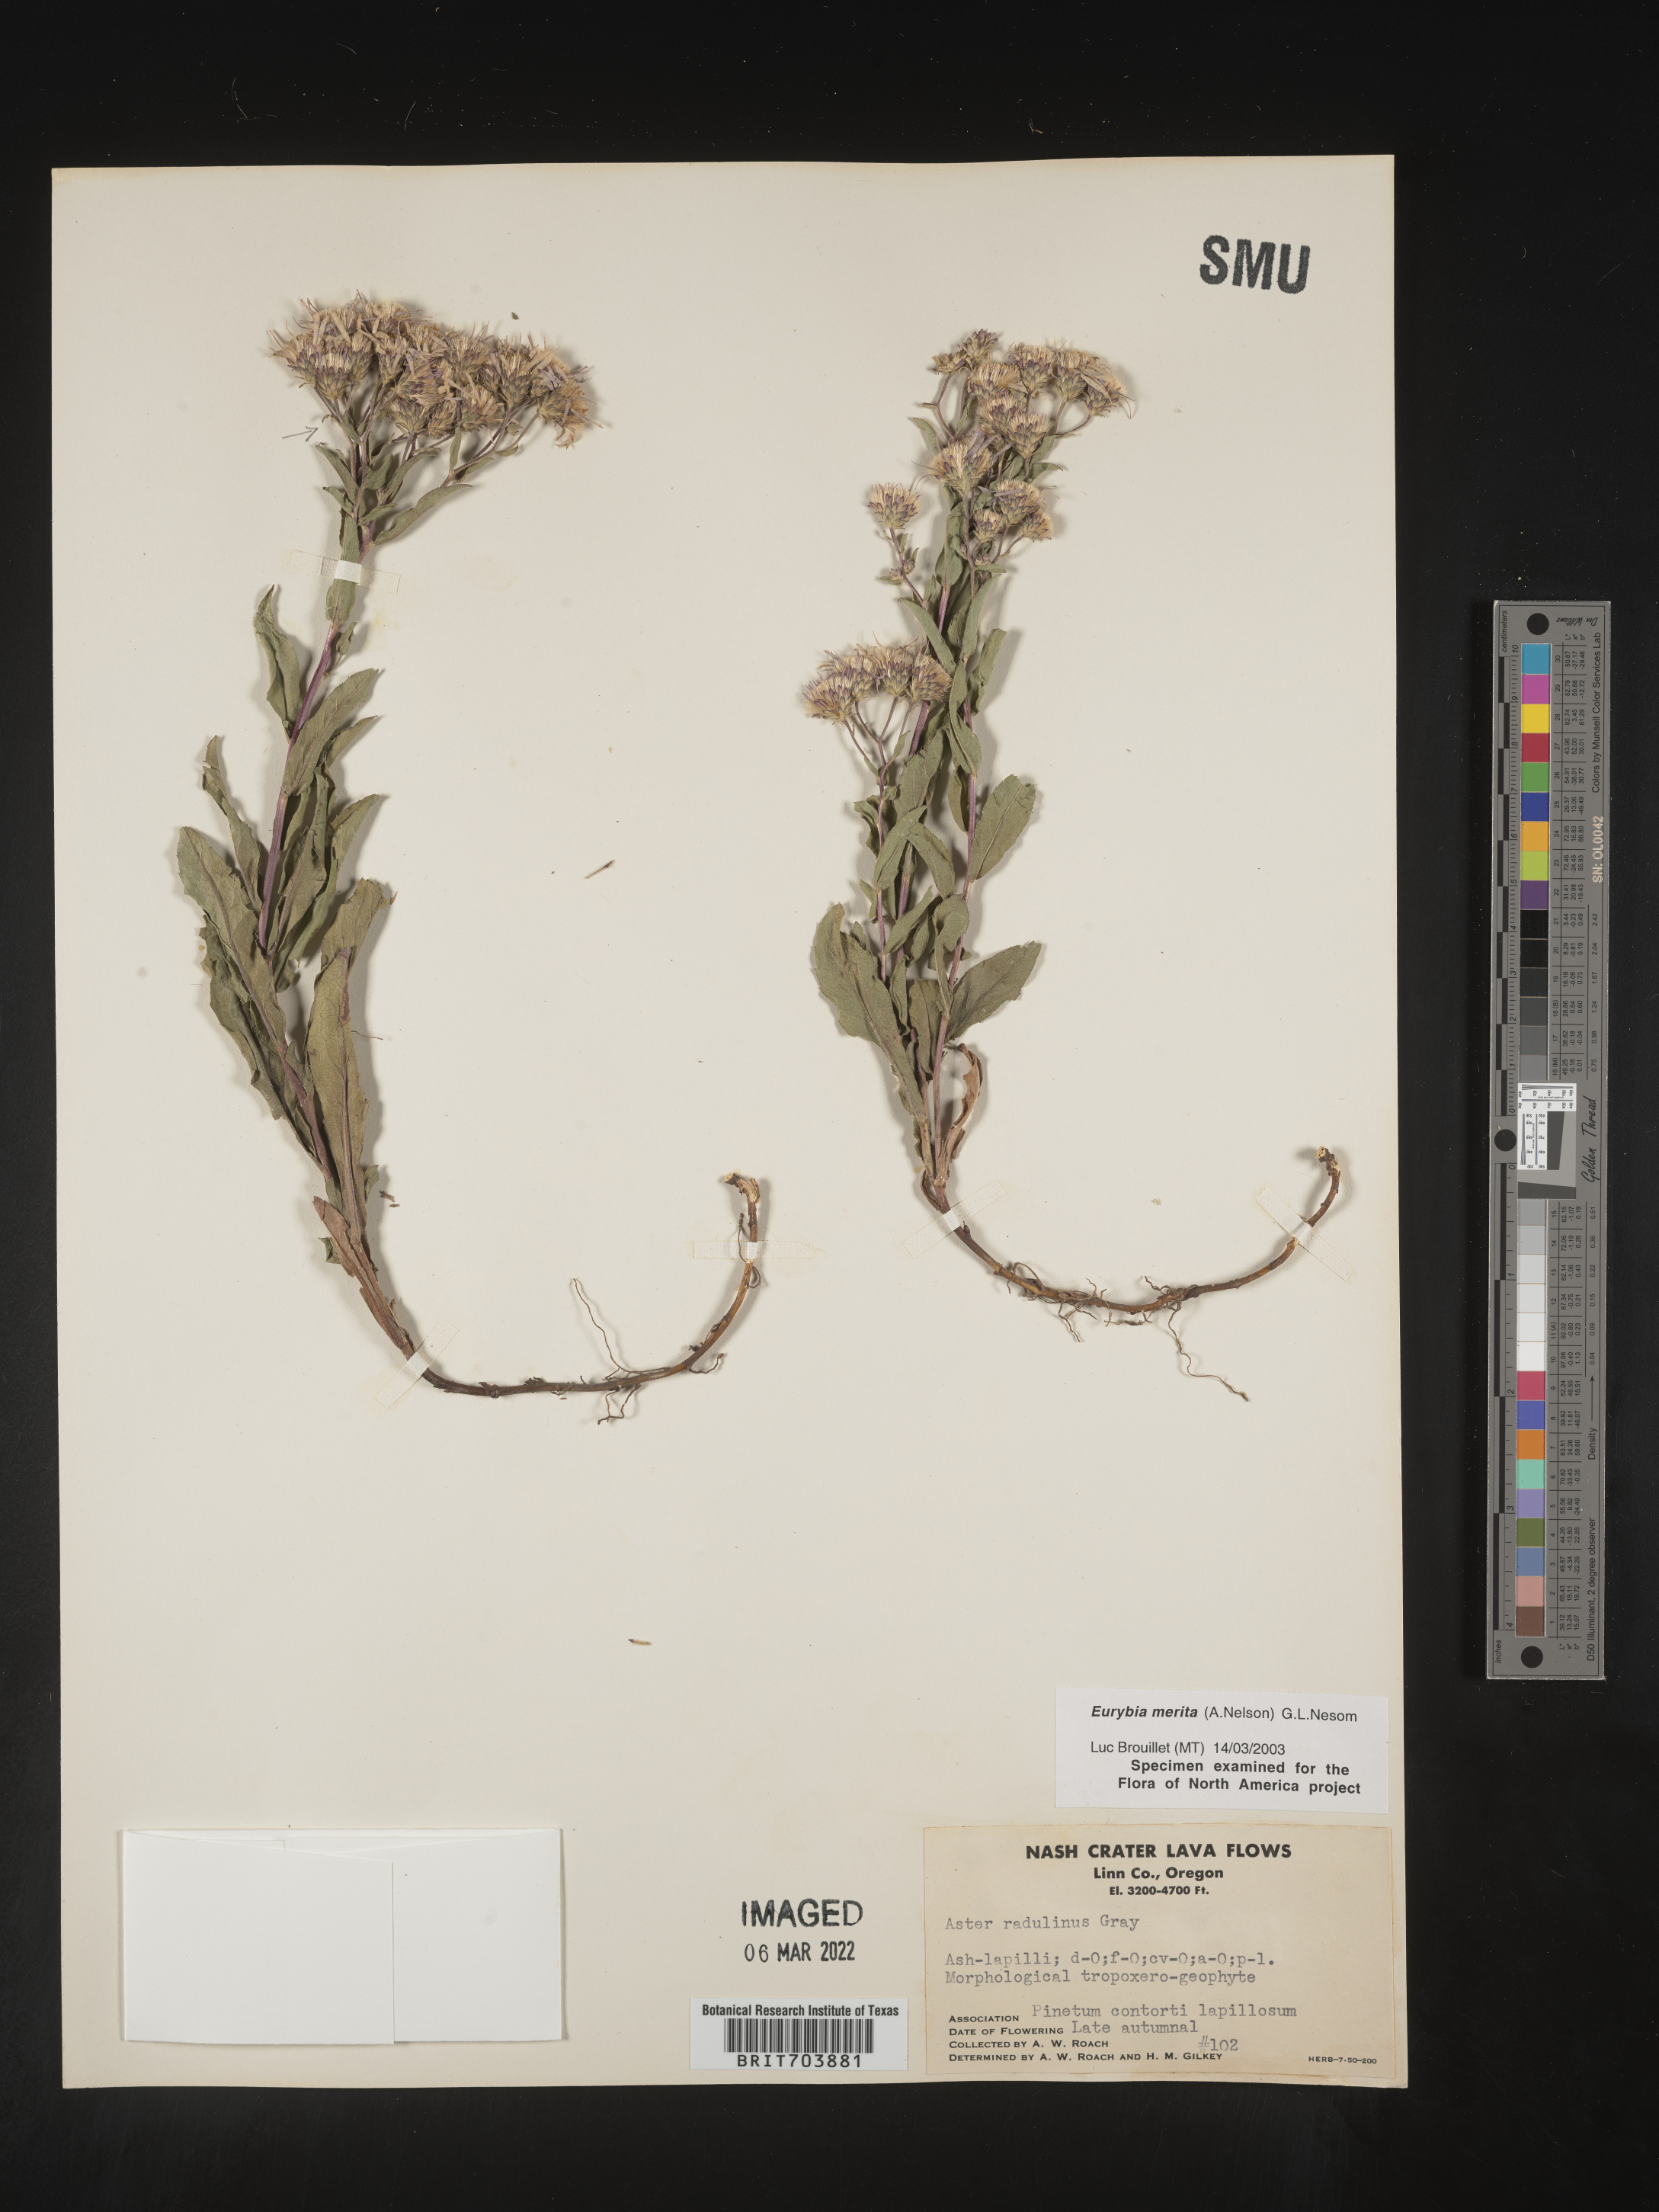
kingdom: Plantae
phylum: Tracheophyta
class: Magnoliopsida
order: Asterales
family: Asteraceae
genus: Eurybia
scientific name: Eurybia merita
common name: Arctic aster
